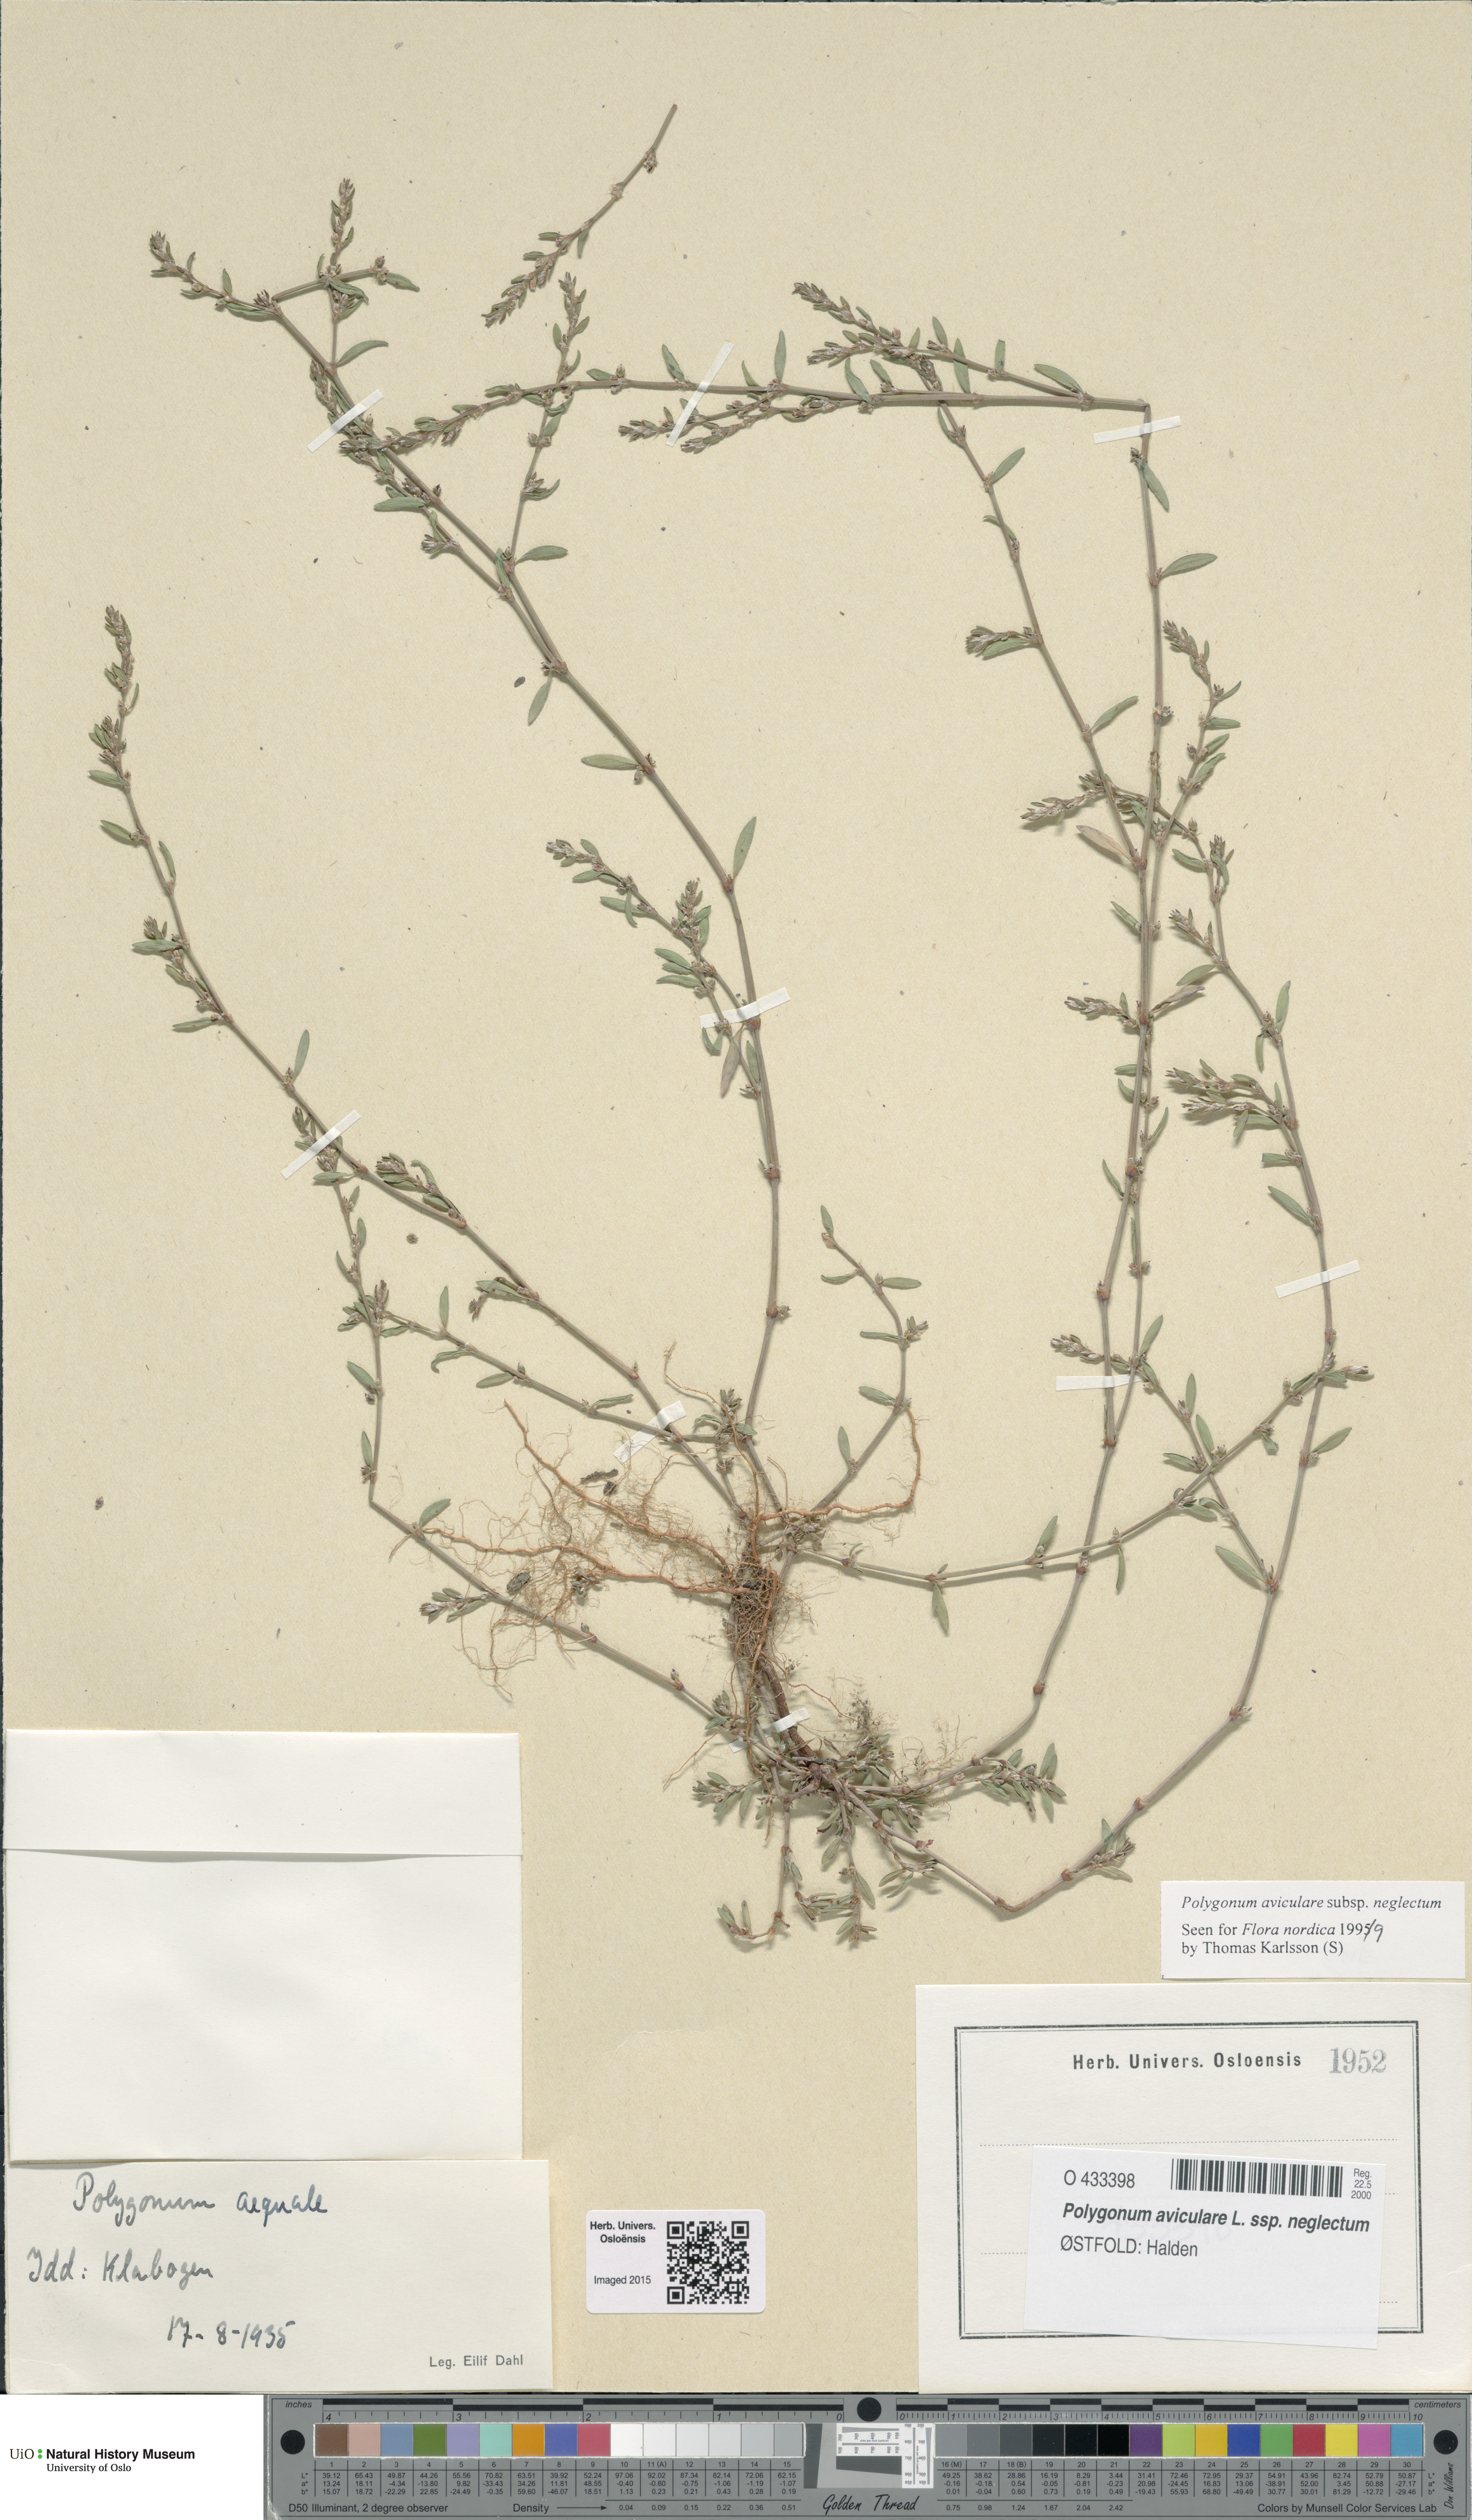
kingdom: Plantae
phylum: Tracheophyta
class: Magnoliopsida
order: Caryophyllales
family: Polygonaceae
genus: Polygonum
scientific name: Polygonum aviculare
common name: Prostrate knotweed
